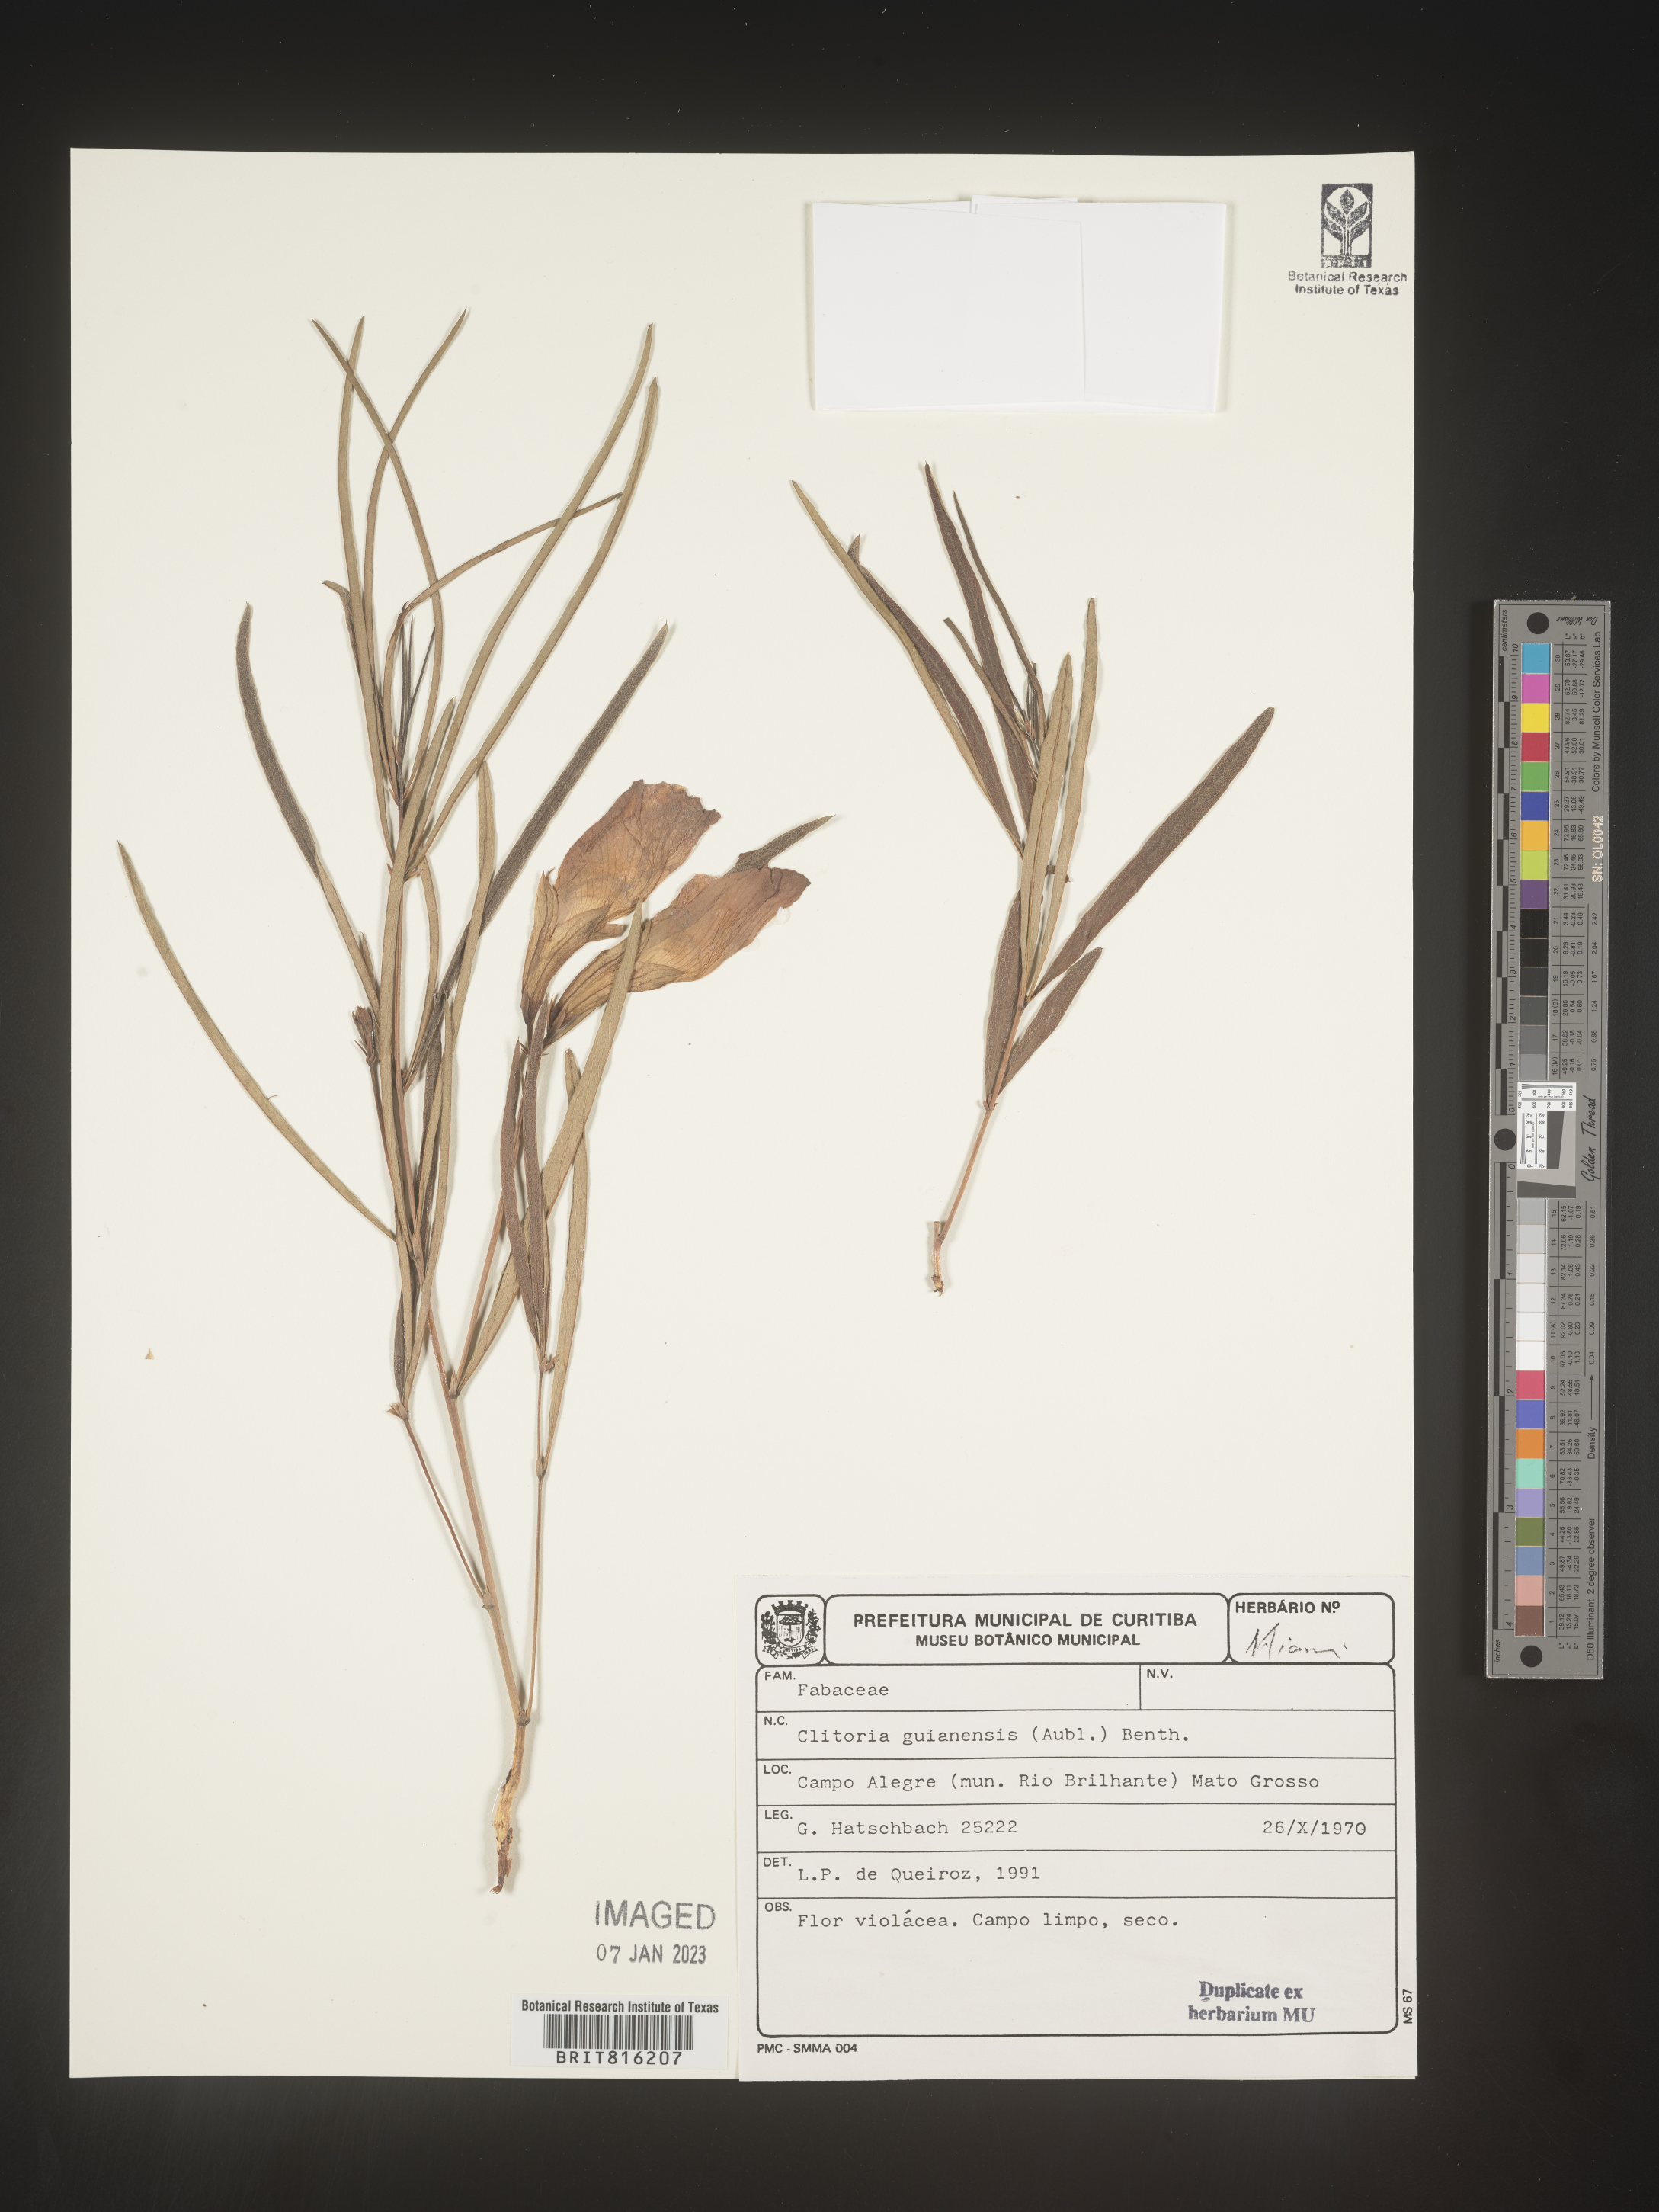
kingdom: Plantae
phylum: Tracheophyta
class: Magnoliopsida
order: Fabales
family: Fabaceae
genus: Clitoria
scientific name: Clitoria
